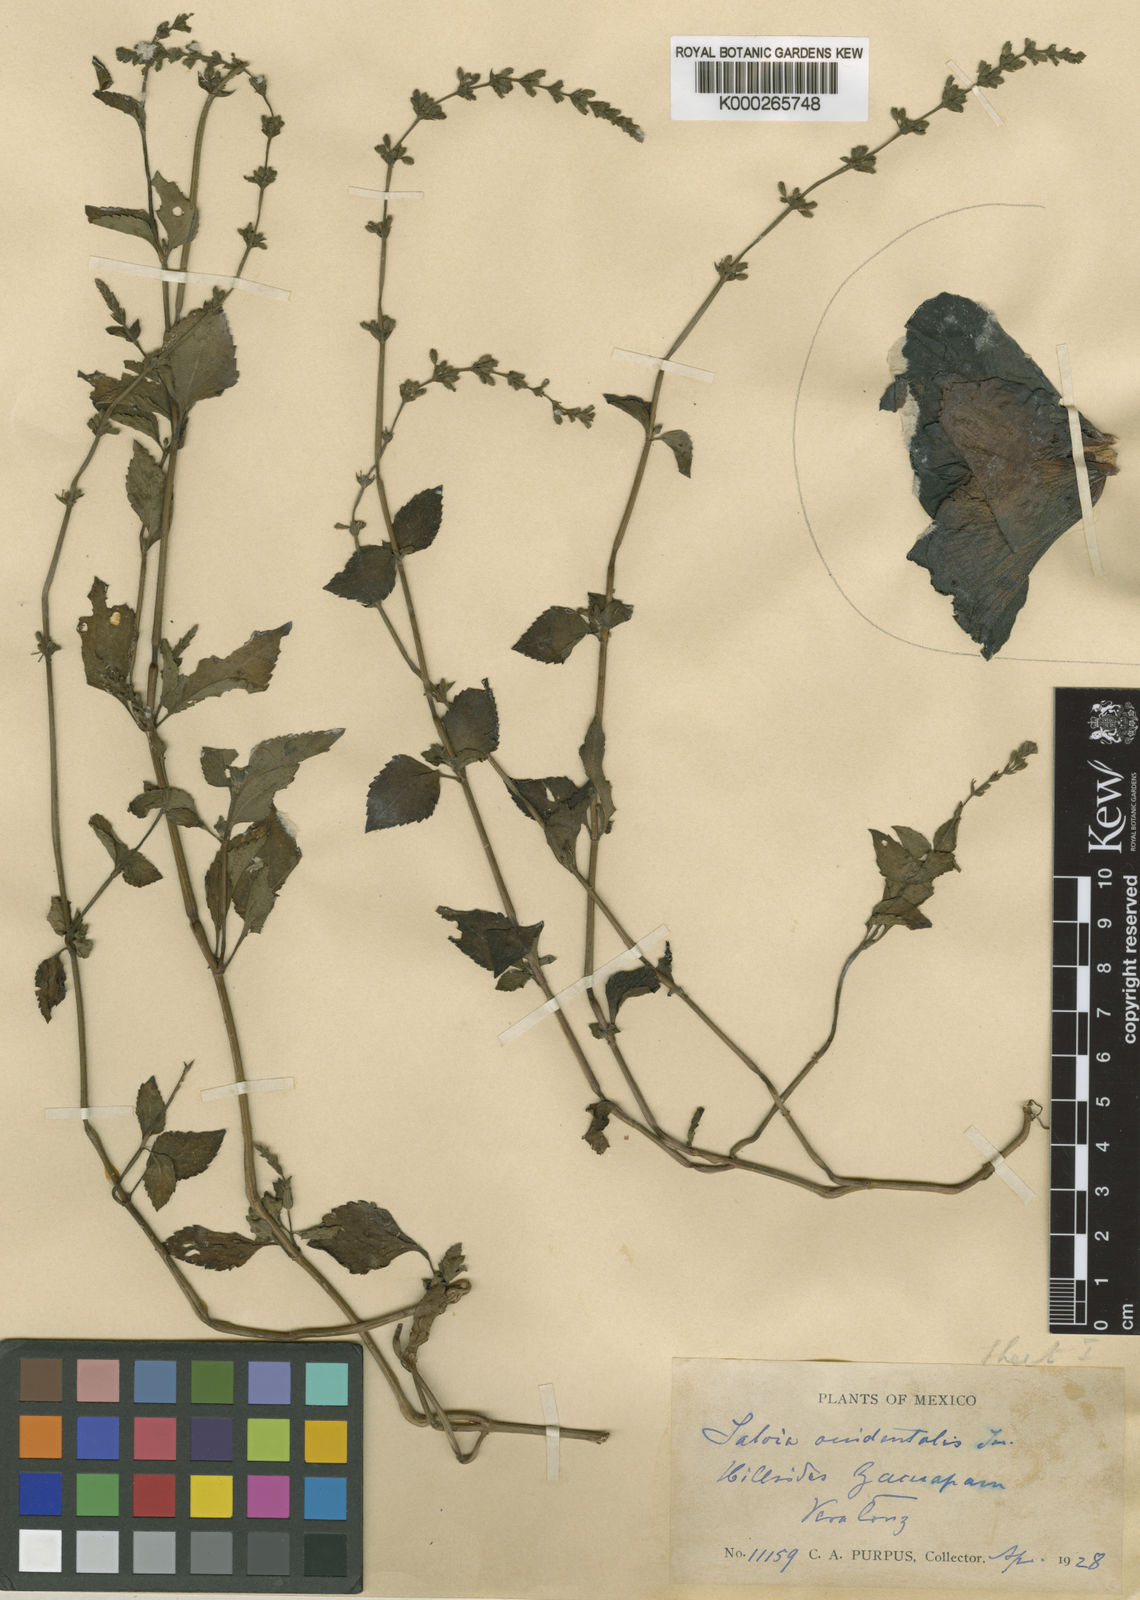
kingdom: Plantae
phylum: Tracheophyta
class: Magnoliopsida
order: Lamiales
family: Lamiaceae
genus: Salvia
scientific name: Salvia occidentalis
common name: West indian sage
